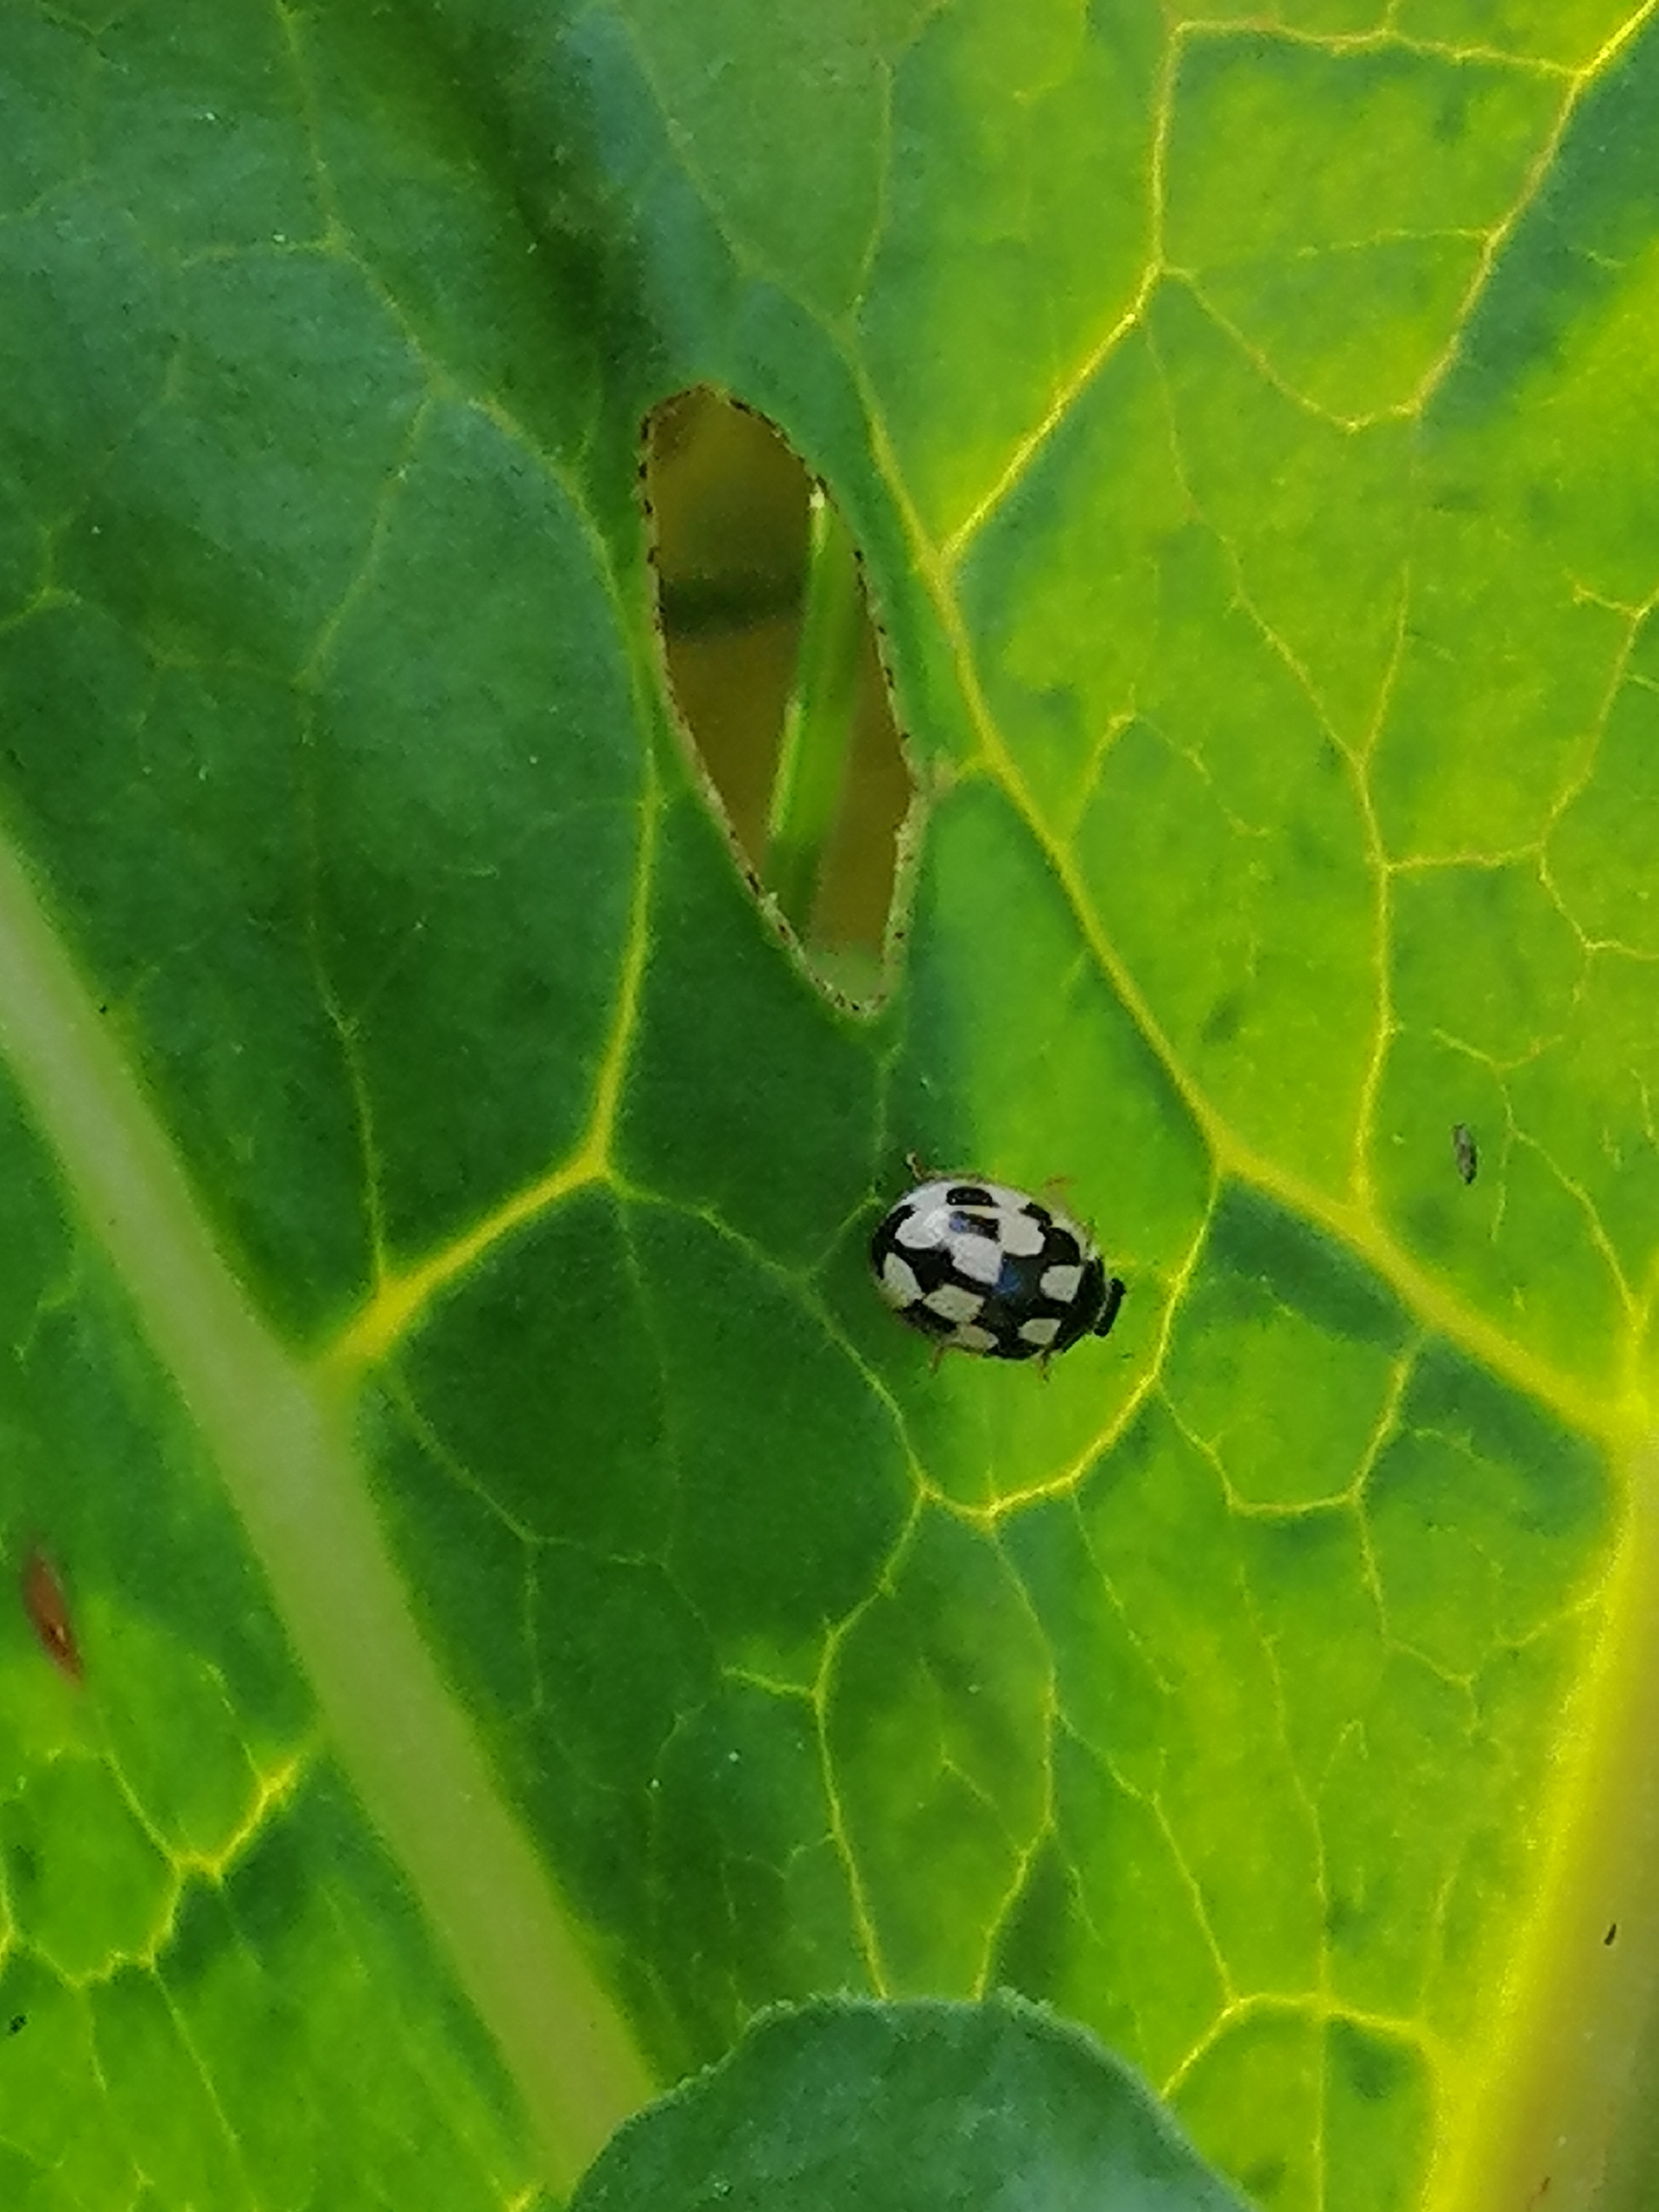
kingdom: Animalia
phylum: Arthropoda
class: Insecta
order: Coleoptera
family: Coccinellidae
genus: Propylaea
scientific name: Propylaea quatuordecimpunctata
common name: Skakbræt
